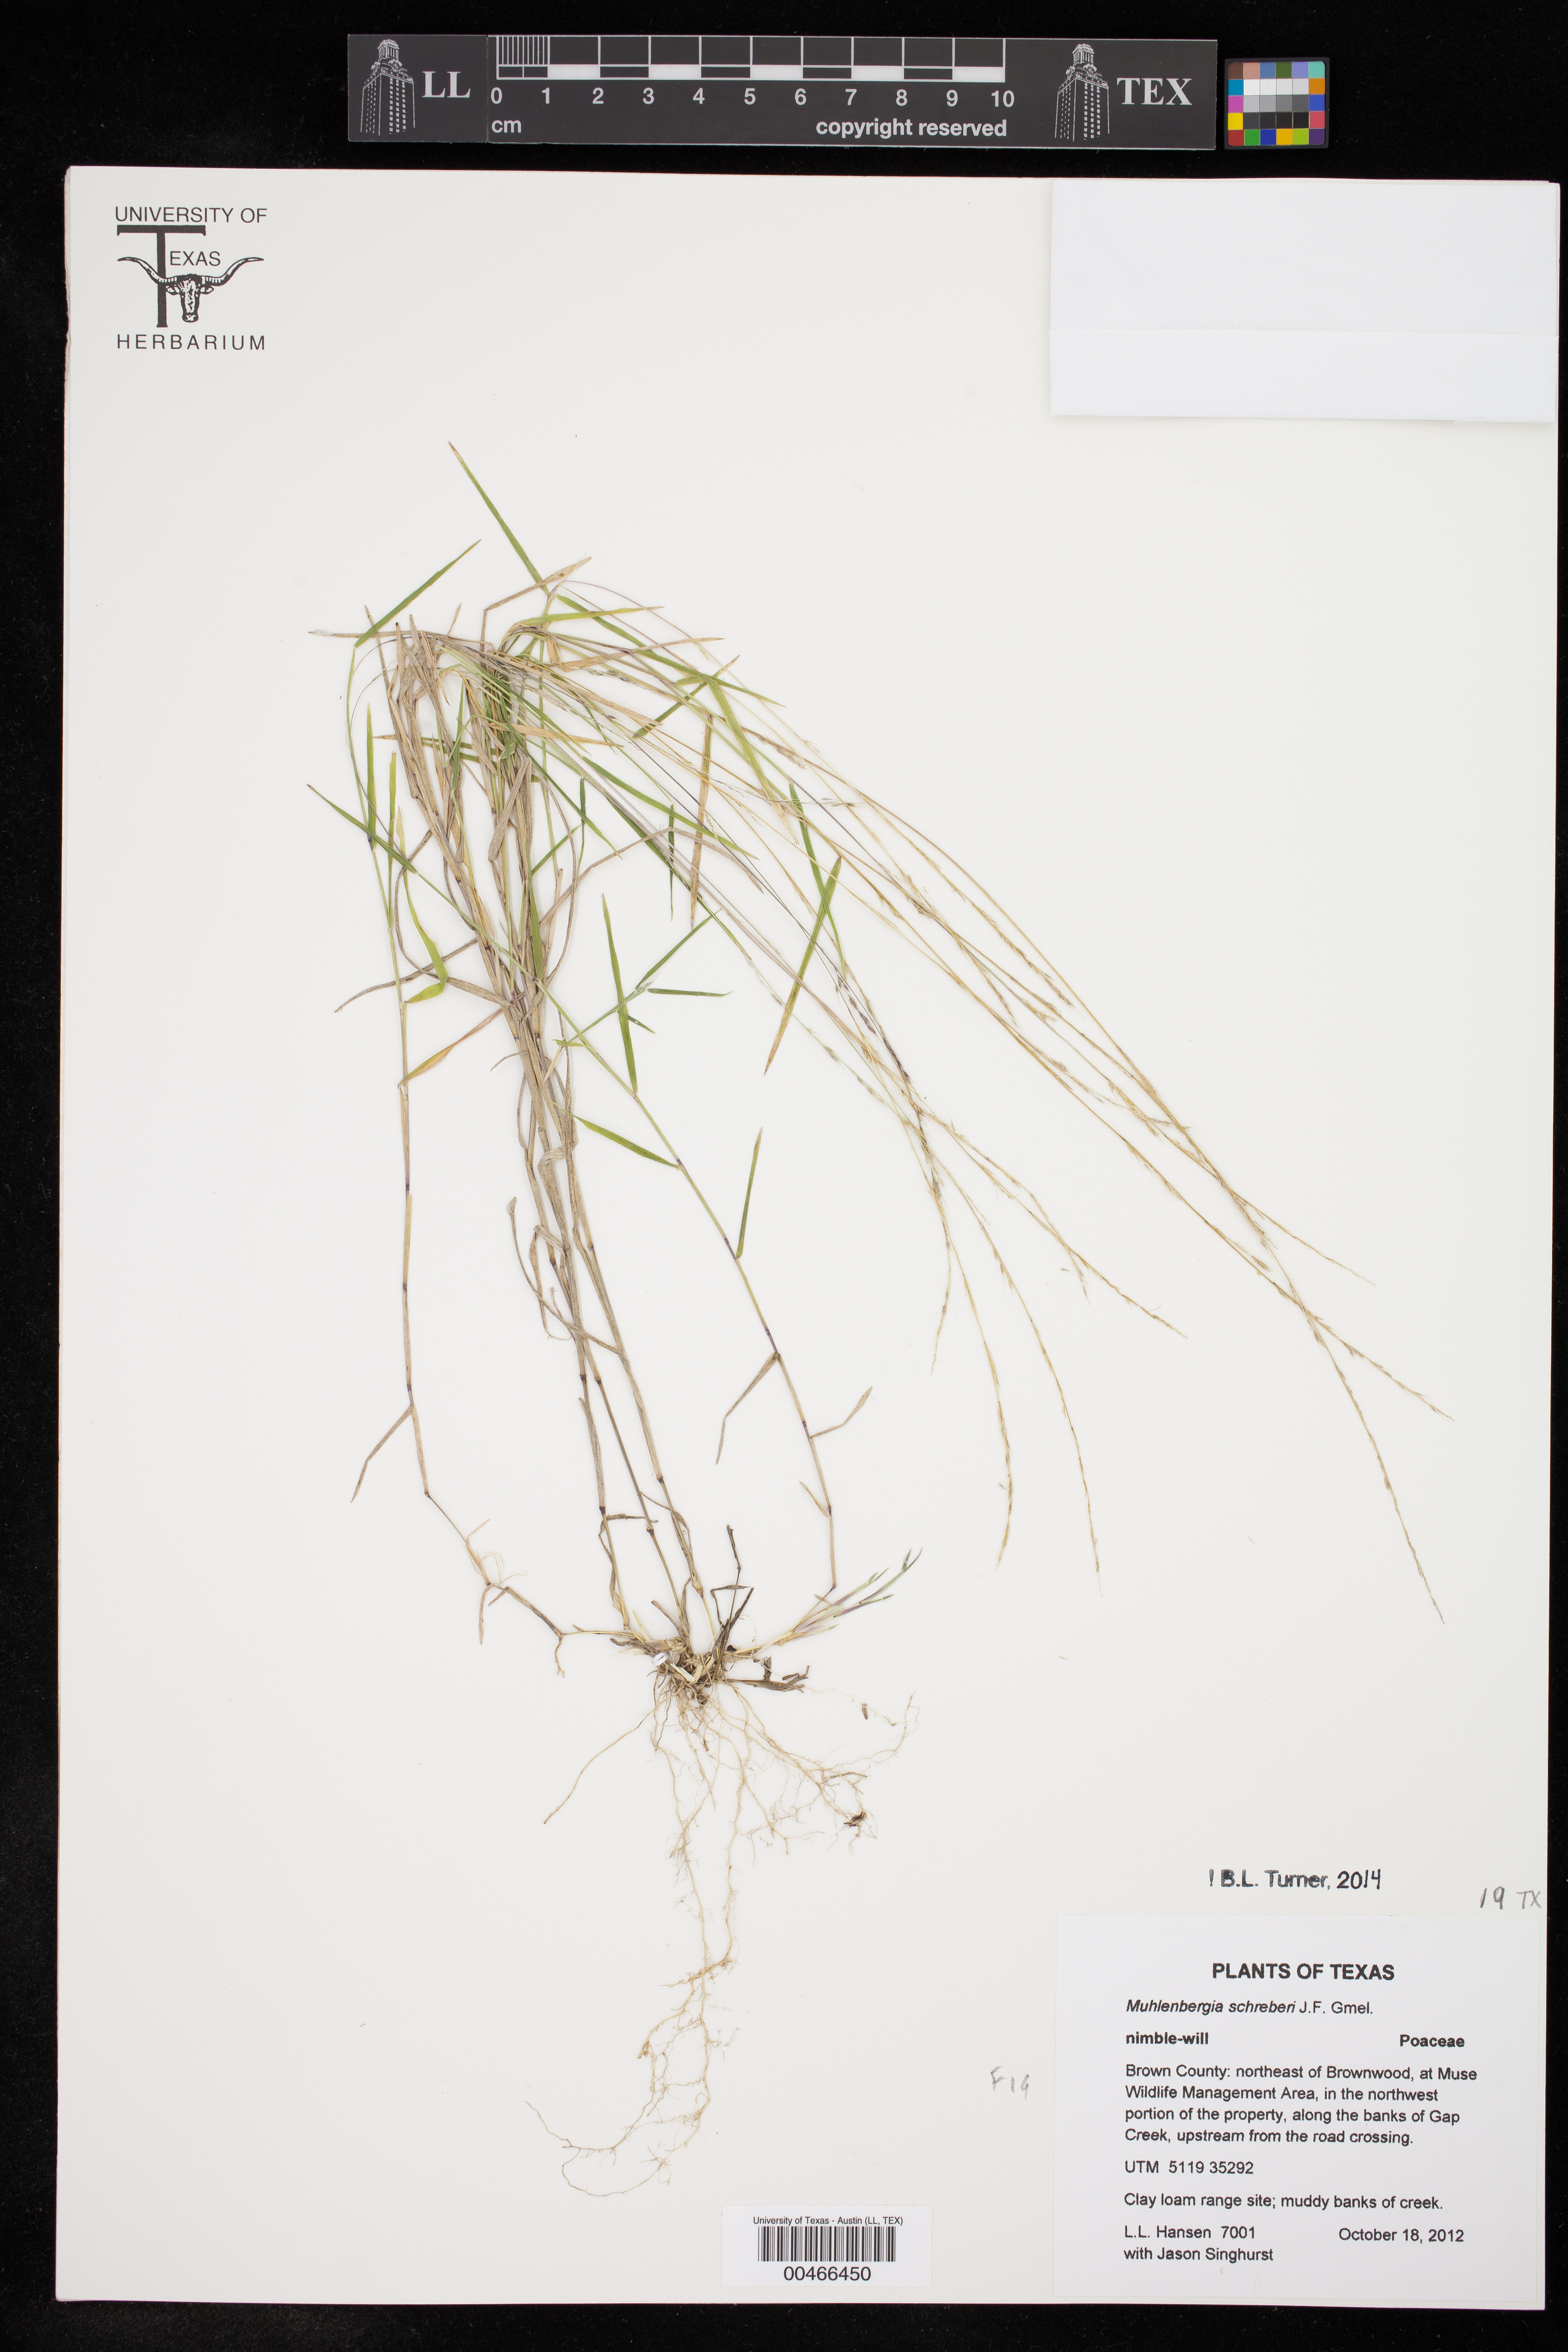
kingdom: Plantae
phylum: Tracheophyta
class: Liliopsida
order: Poales
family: Poaceae
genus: Muhlenbergia
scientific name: Muhlenbergia schreberi
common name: Nimblewill
